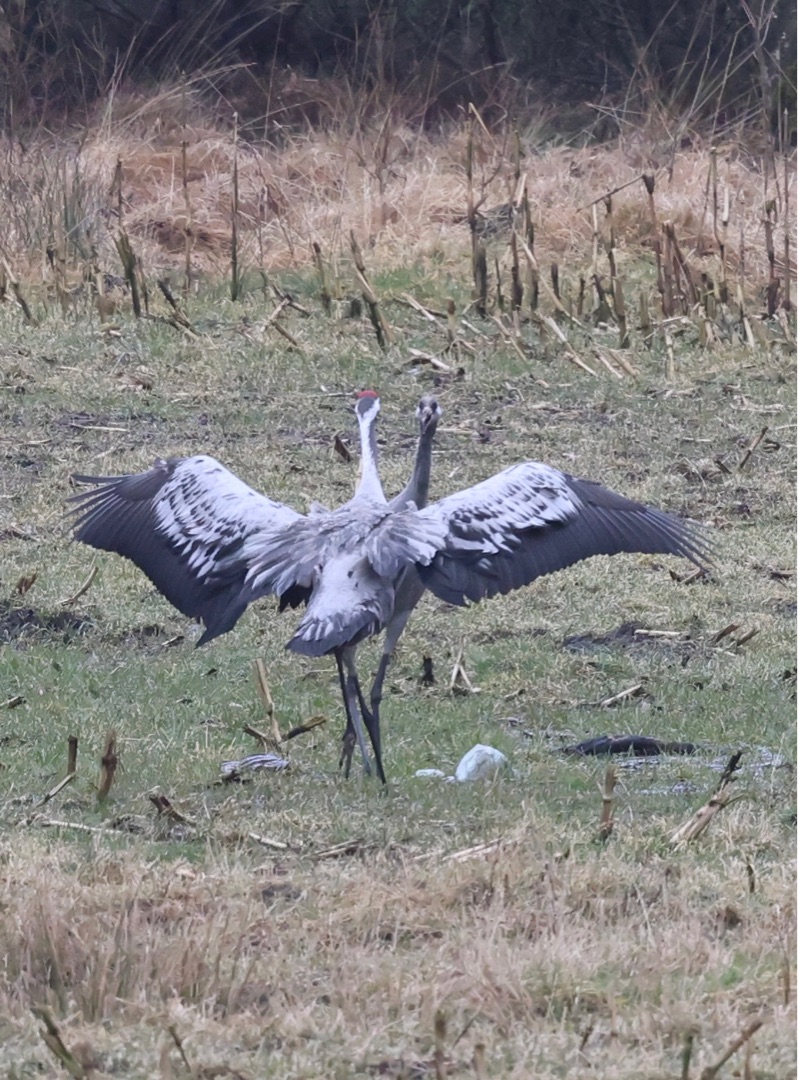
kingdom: Animalia
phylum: Chordata
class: Aves
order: Gruiformes
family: Gruidae
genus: Grus
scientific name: Grus grus
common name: Trane
